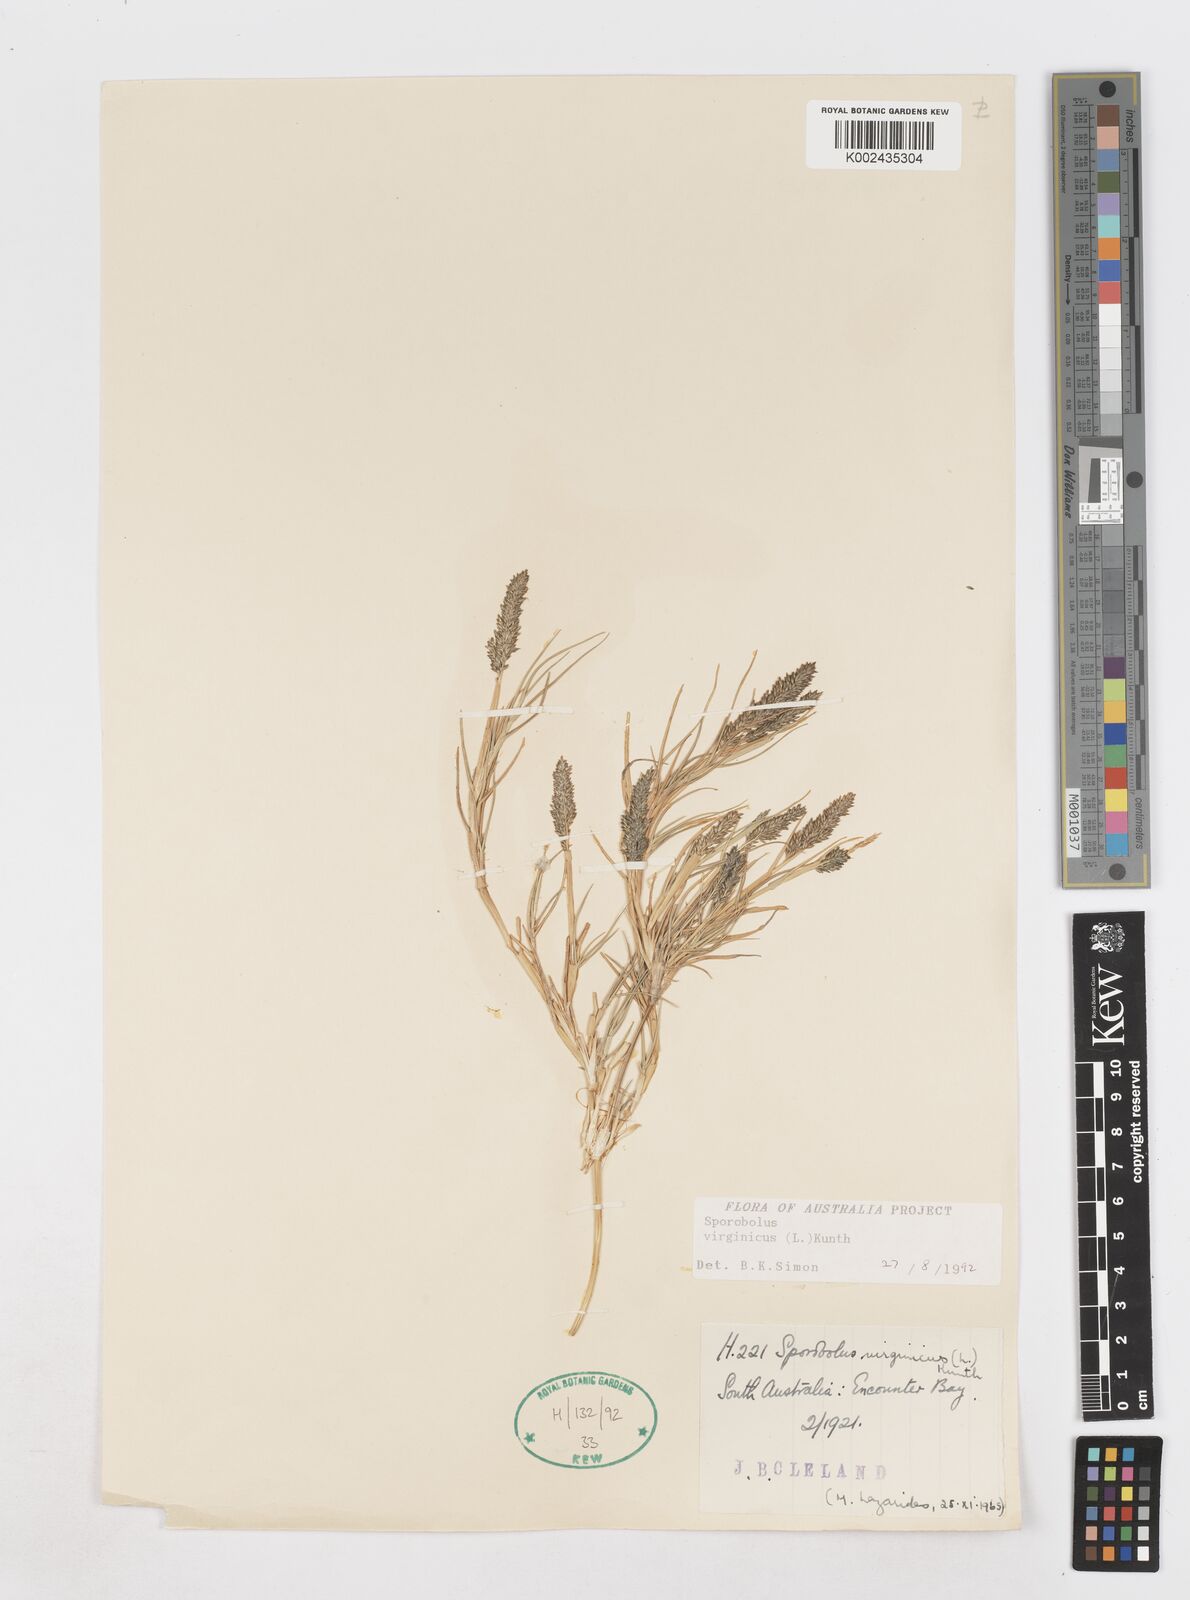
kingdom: Plantae
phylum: Tracheophyta
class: Liliopsida
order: Poales
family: Poaceae
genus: Sporobolus
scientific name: Sporobolus virginicus
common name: Beach dropseed
